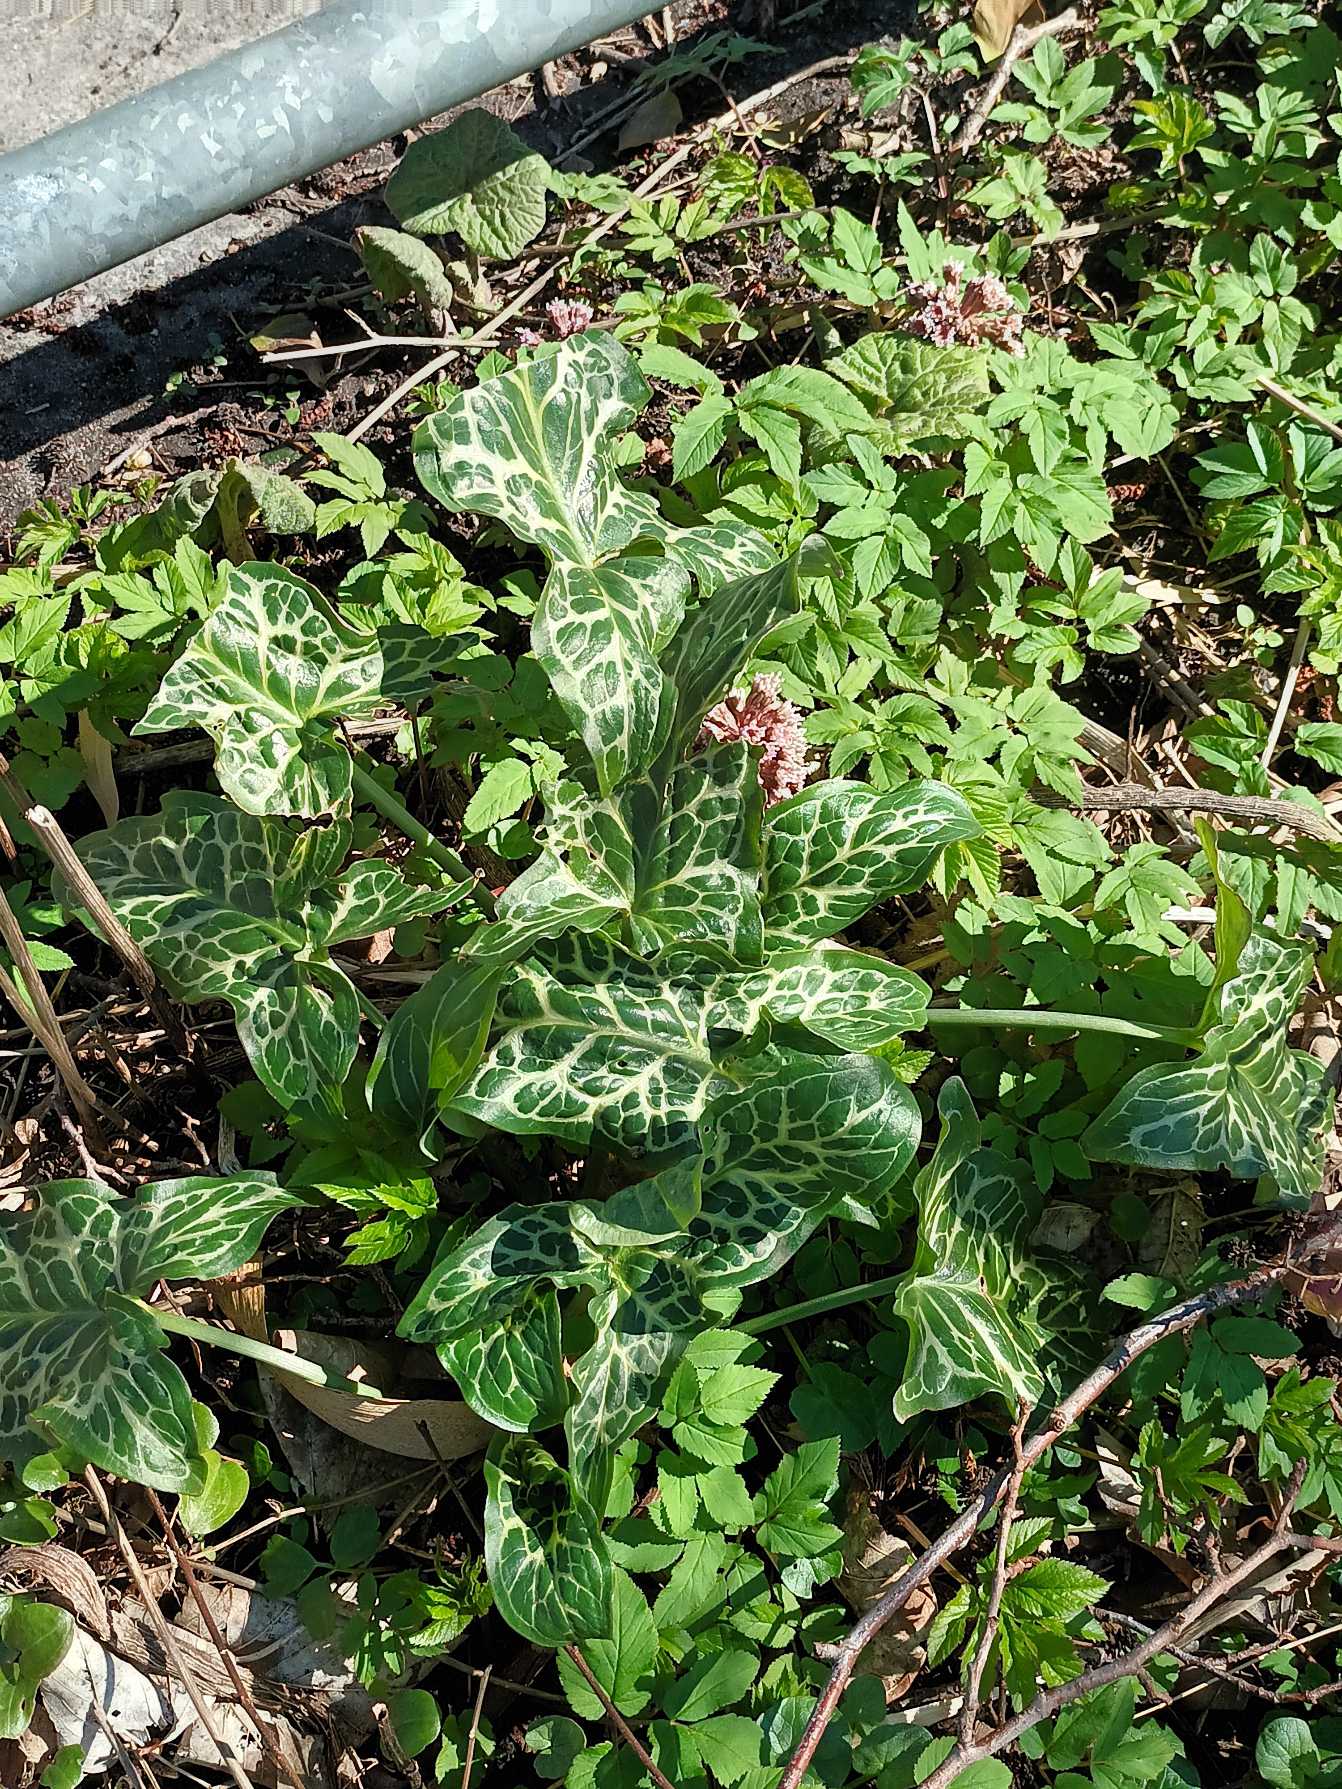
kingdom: Plantae
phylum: Tracheophyta
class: Liliopsida
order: Alismatales
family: Araceae
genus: Arum
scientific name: Arum italicum
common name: Italiensk arum
